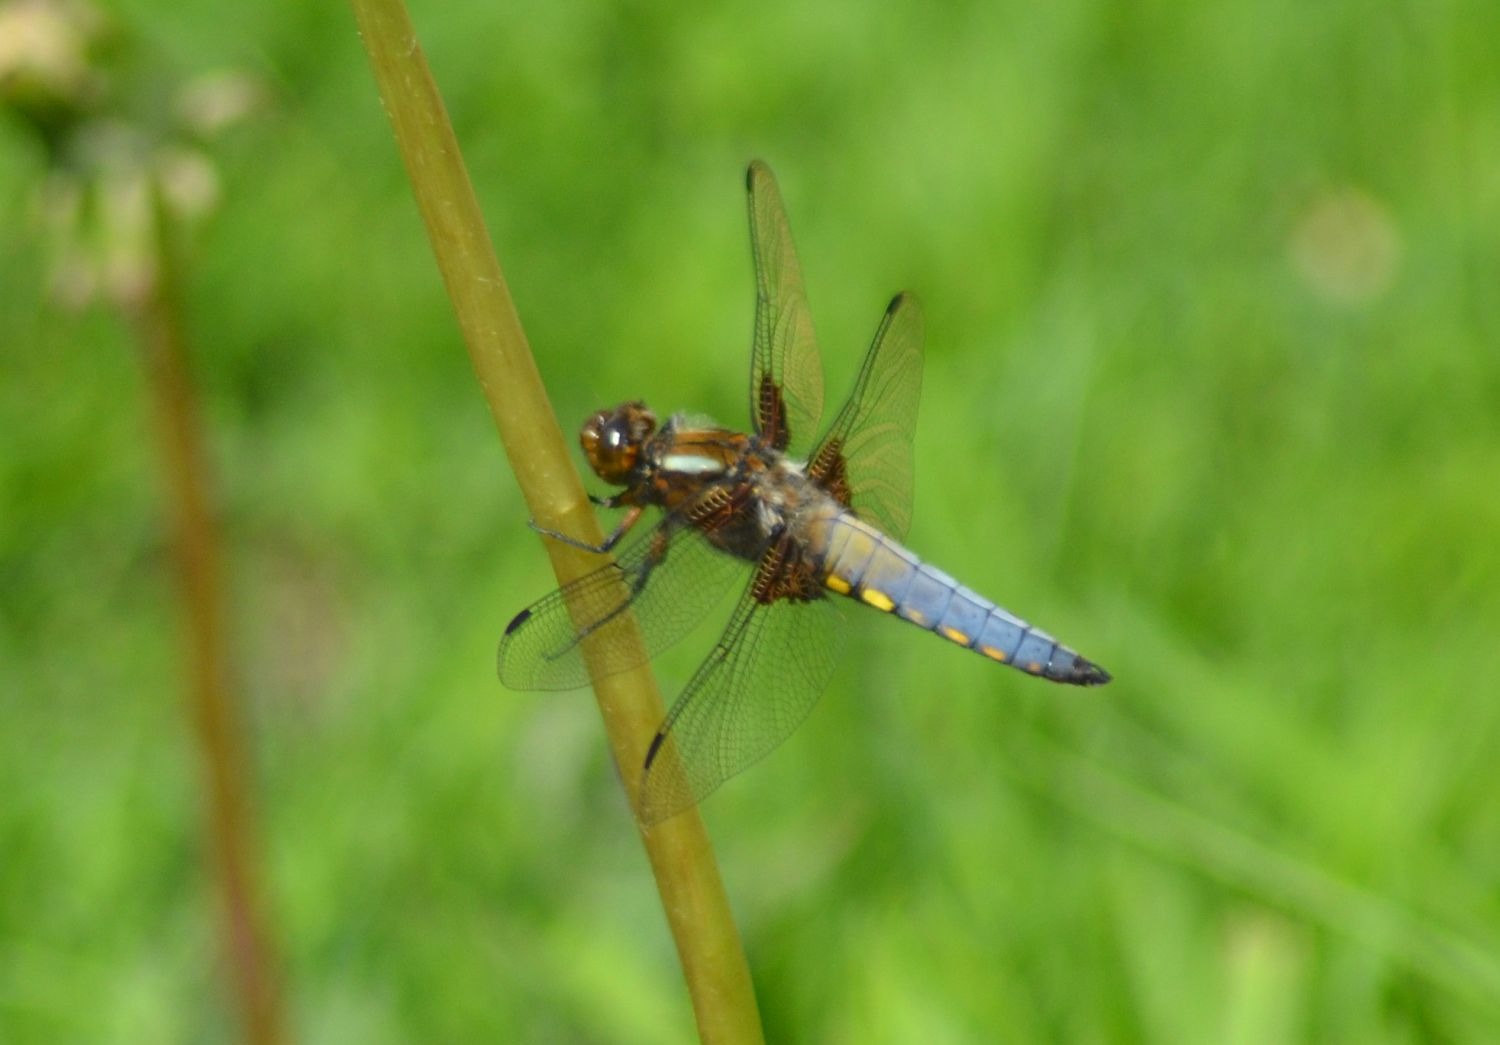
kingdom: Animalia
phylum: Arthropoda
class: Insecta
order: Odonata
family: Libellulidae
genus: Libellula
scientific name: Libellula depressa
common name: Blå libel
